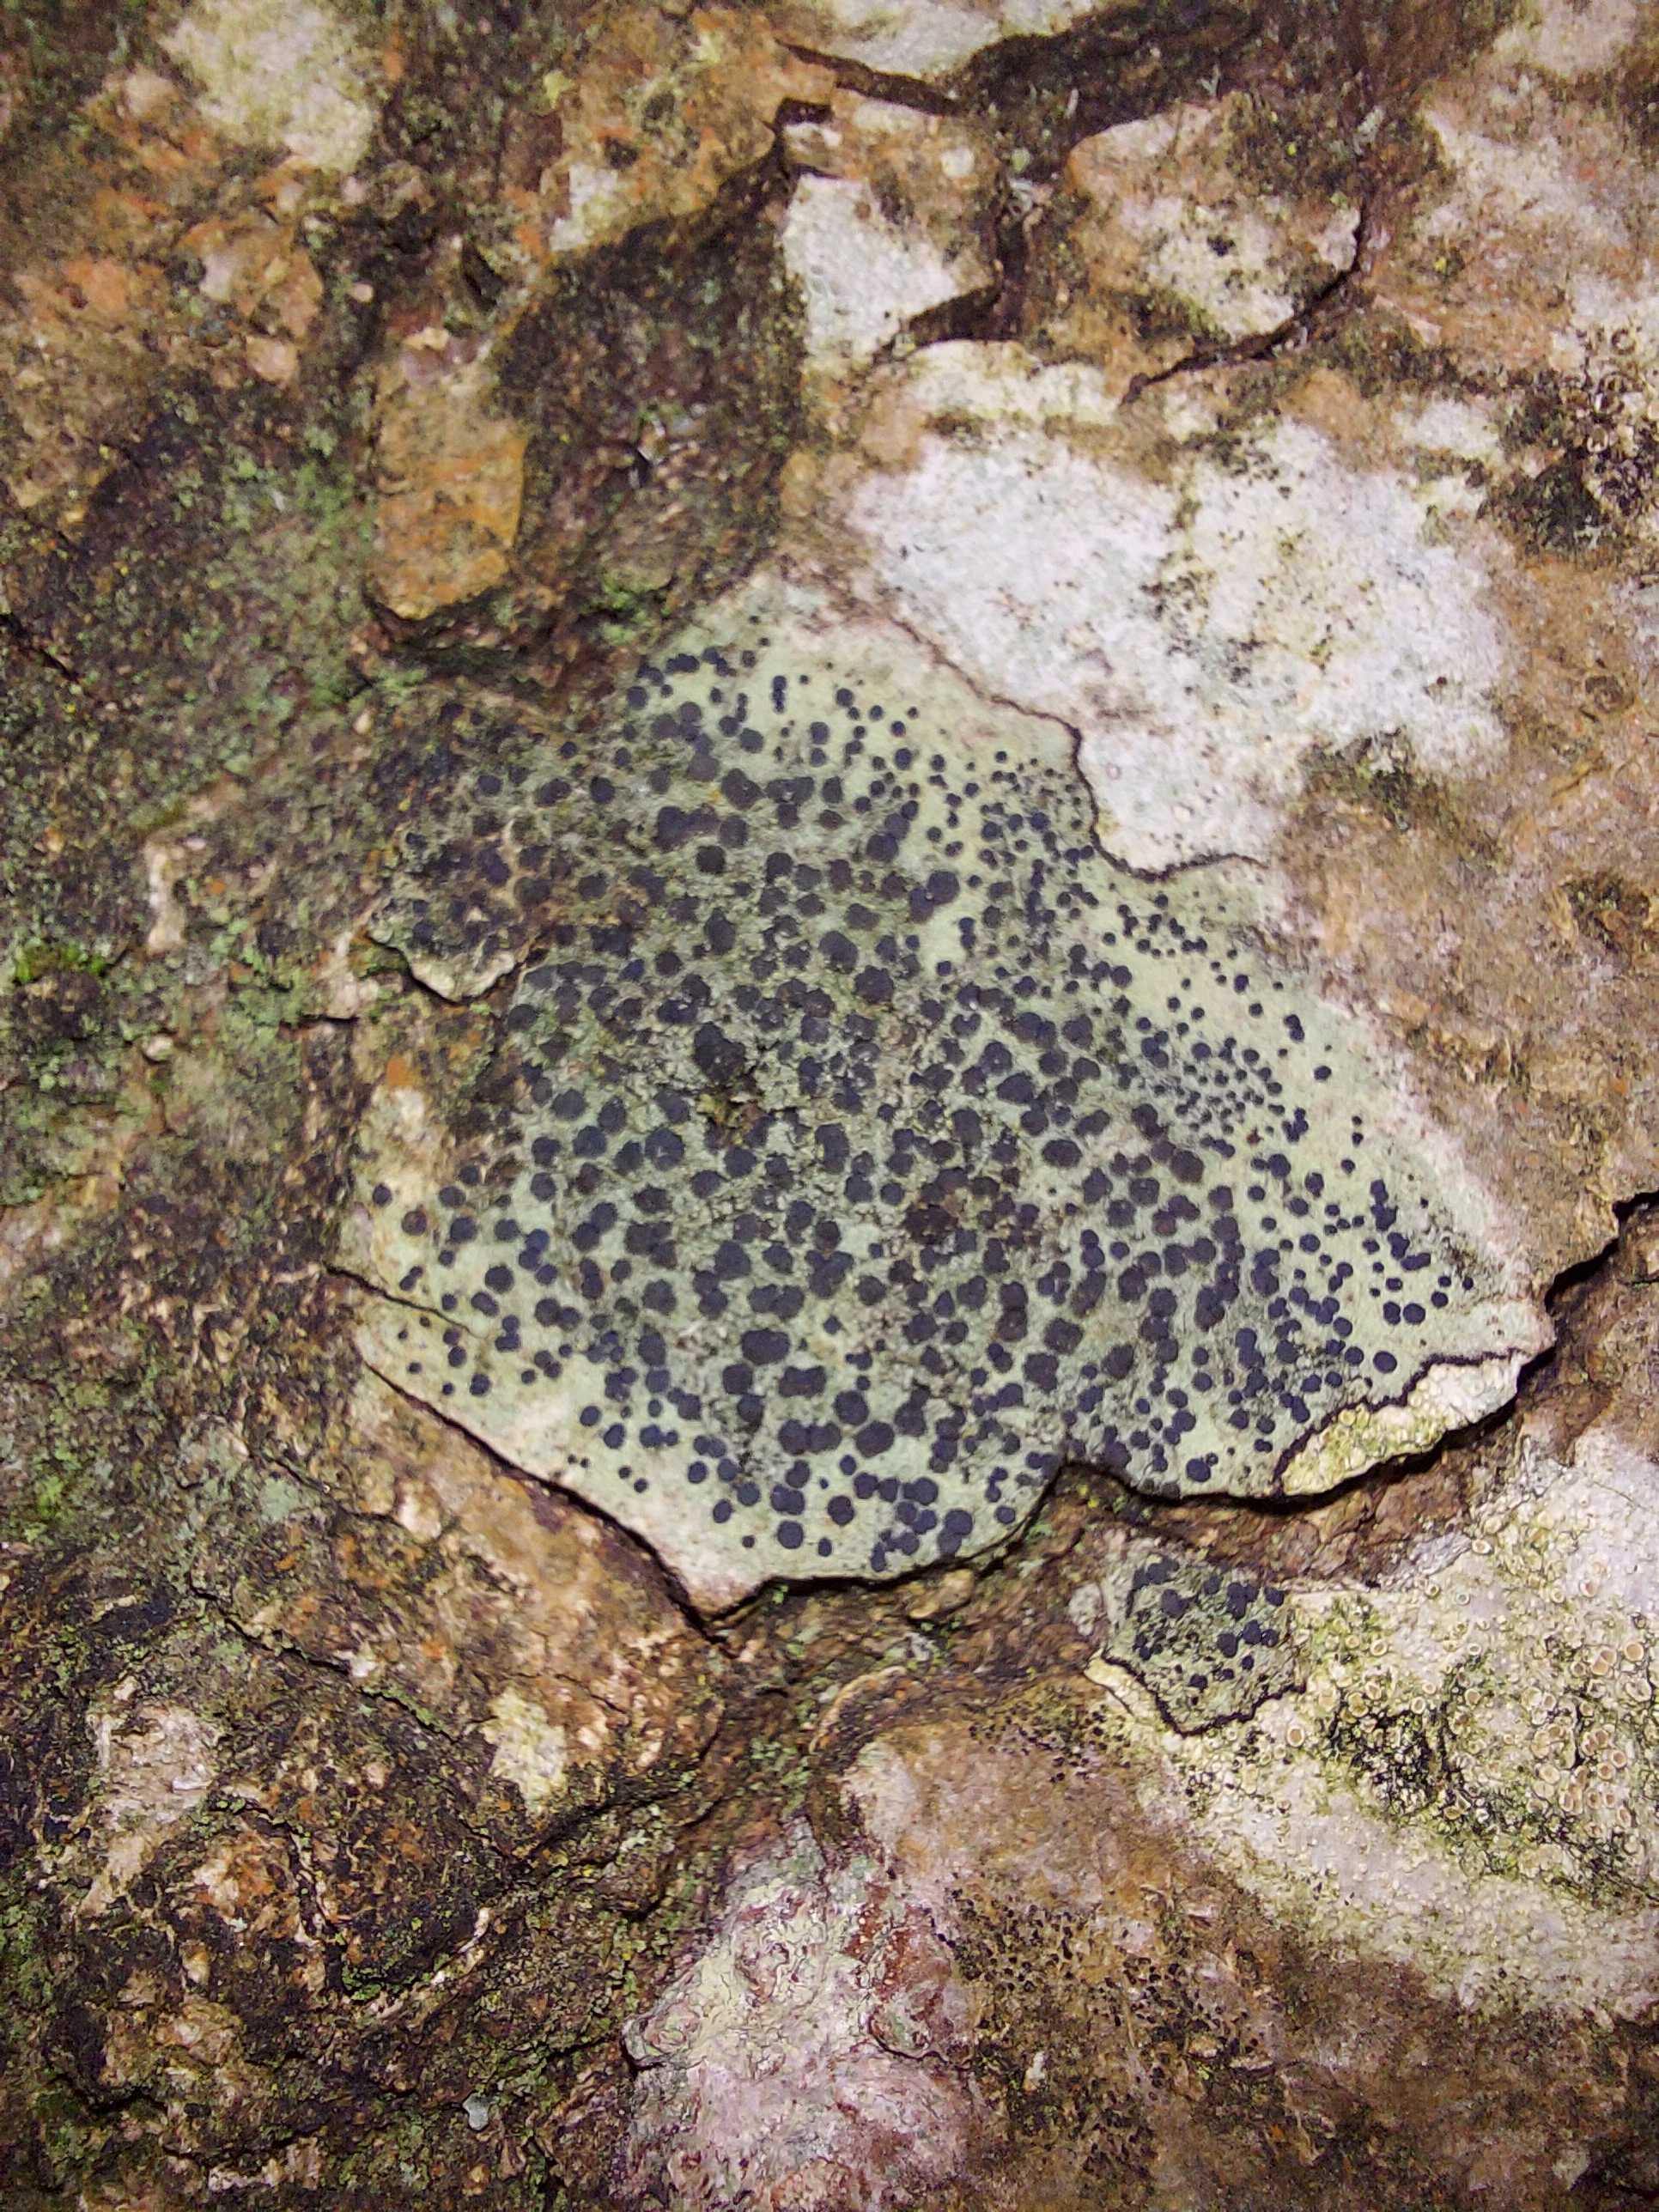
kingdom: Fungi
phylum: Ascomycota
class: Lecanoromycetes
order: Lecanorales
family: Lecanoraceae
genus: Lecidella
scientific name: Lecidella elaeochroma
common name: grågrøn skivelav
